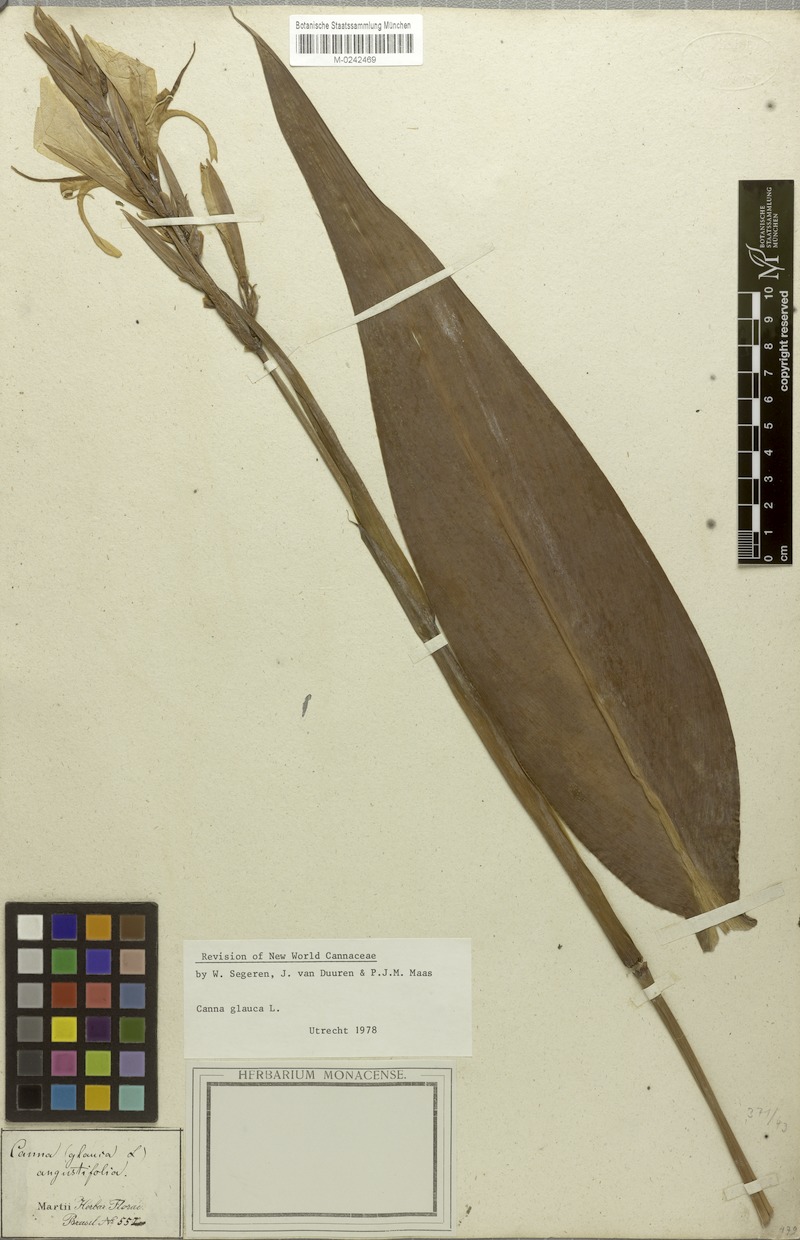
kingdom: Plantae
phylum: Tracheophyta
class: Liliopsida
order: Zingiberales
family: Cannaceae
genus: Canna
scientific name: Canna glauca
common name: Louisiana canna
